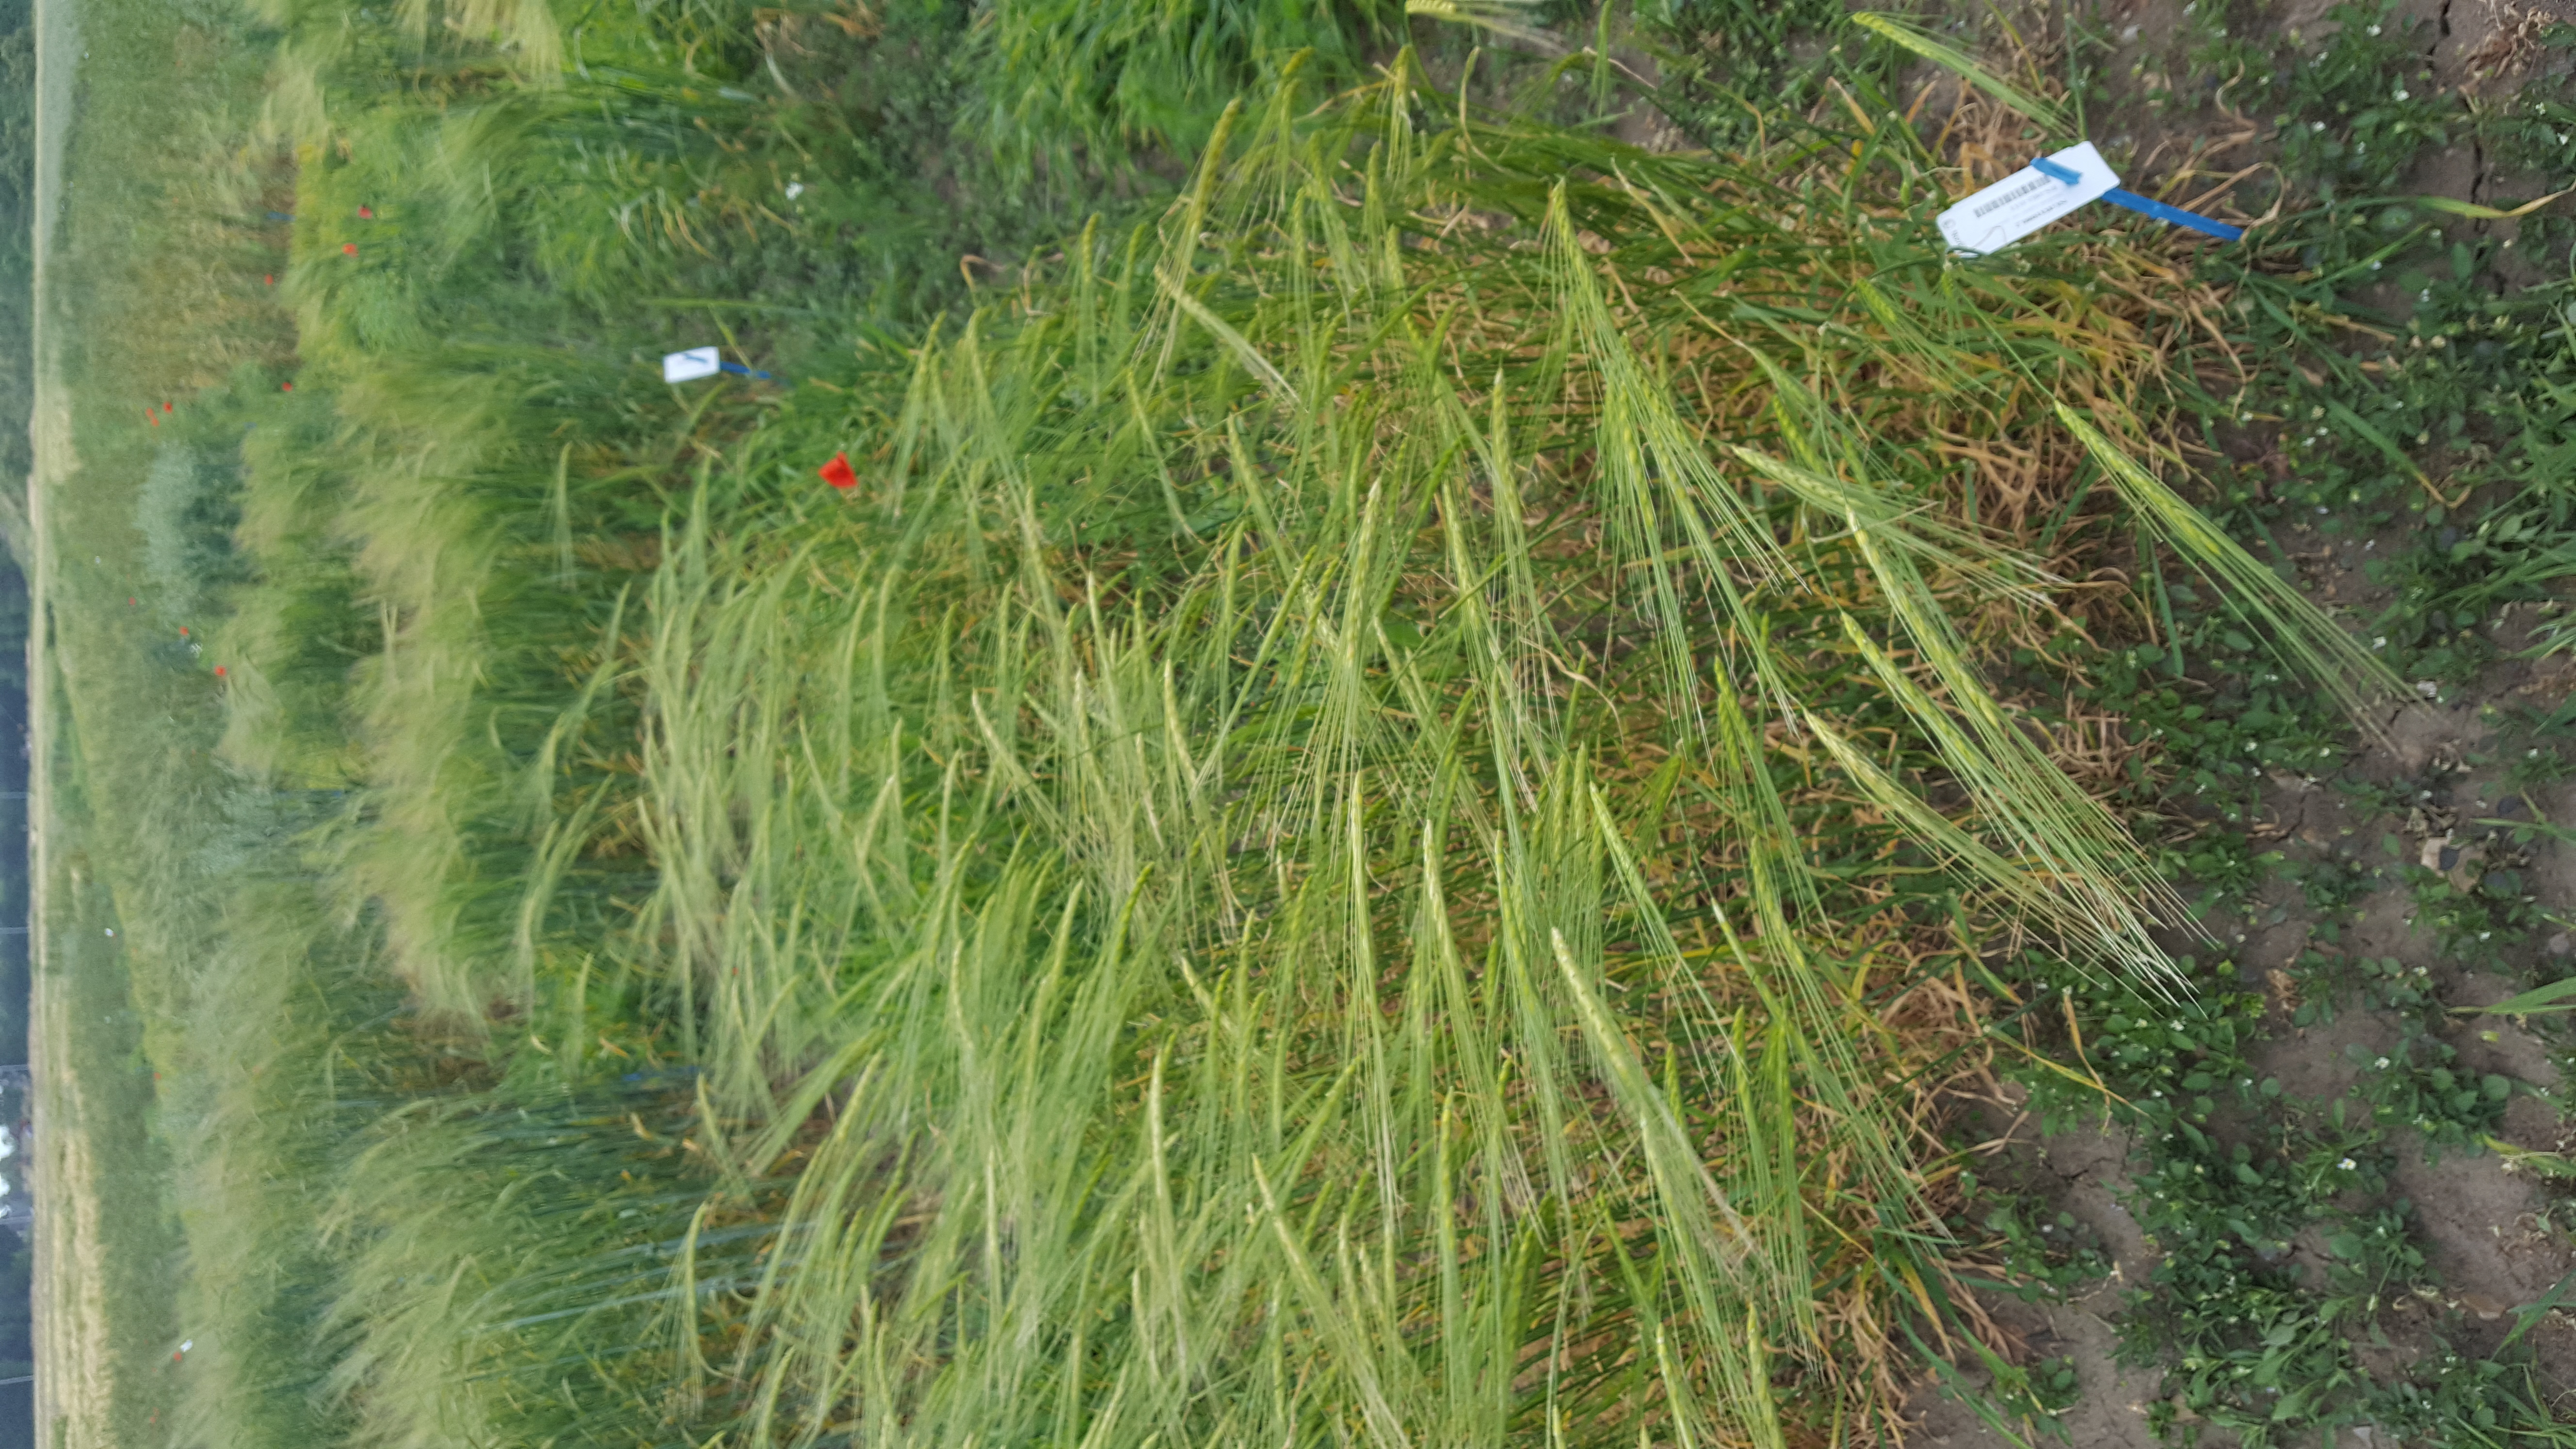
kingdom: Plantae
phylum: Tracheophyta
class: Liliopsida
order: Poales
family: Poaceae
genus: Hordeum
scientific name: Hordeum spontaneum
